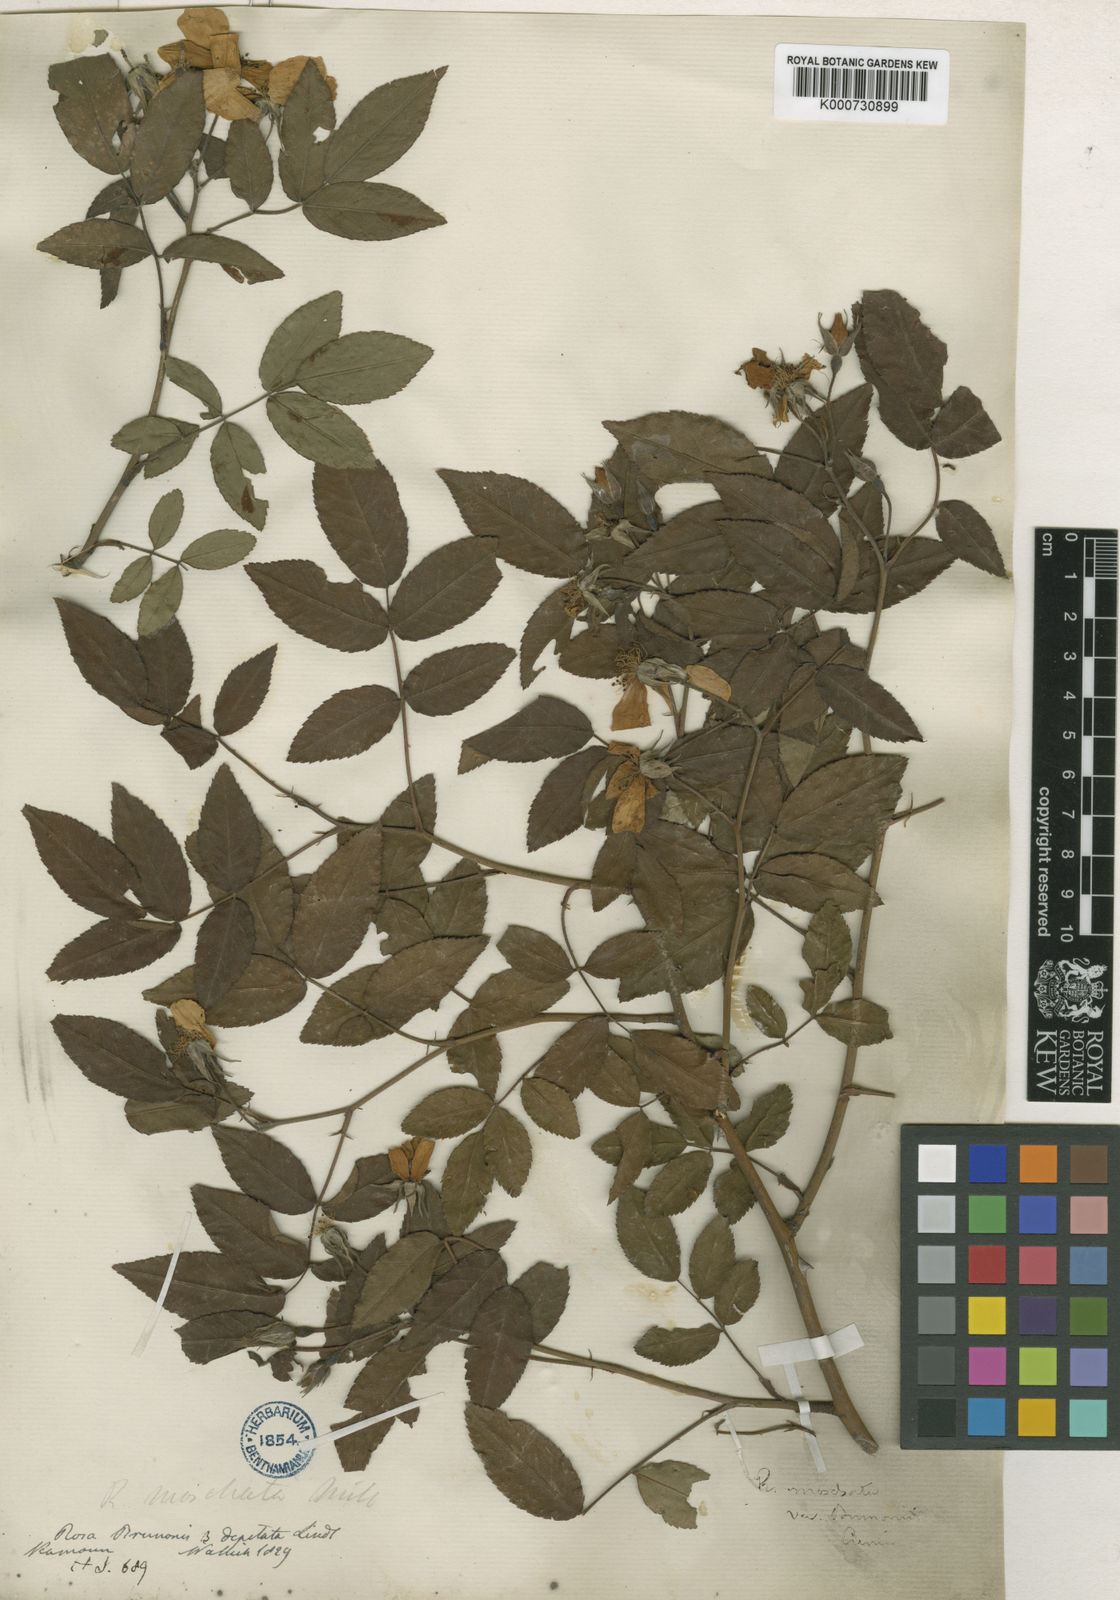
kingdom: Plantae
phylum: Tracheophyta
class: Magnoliopsida
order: Rosales
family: Rosaceae
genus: Rosa
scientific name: Rosa moschata
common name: Musk rose
